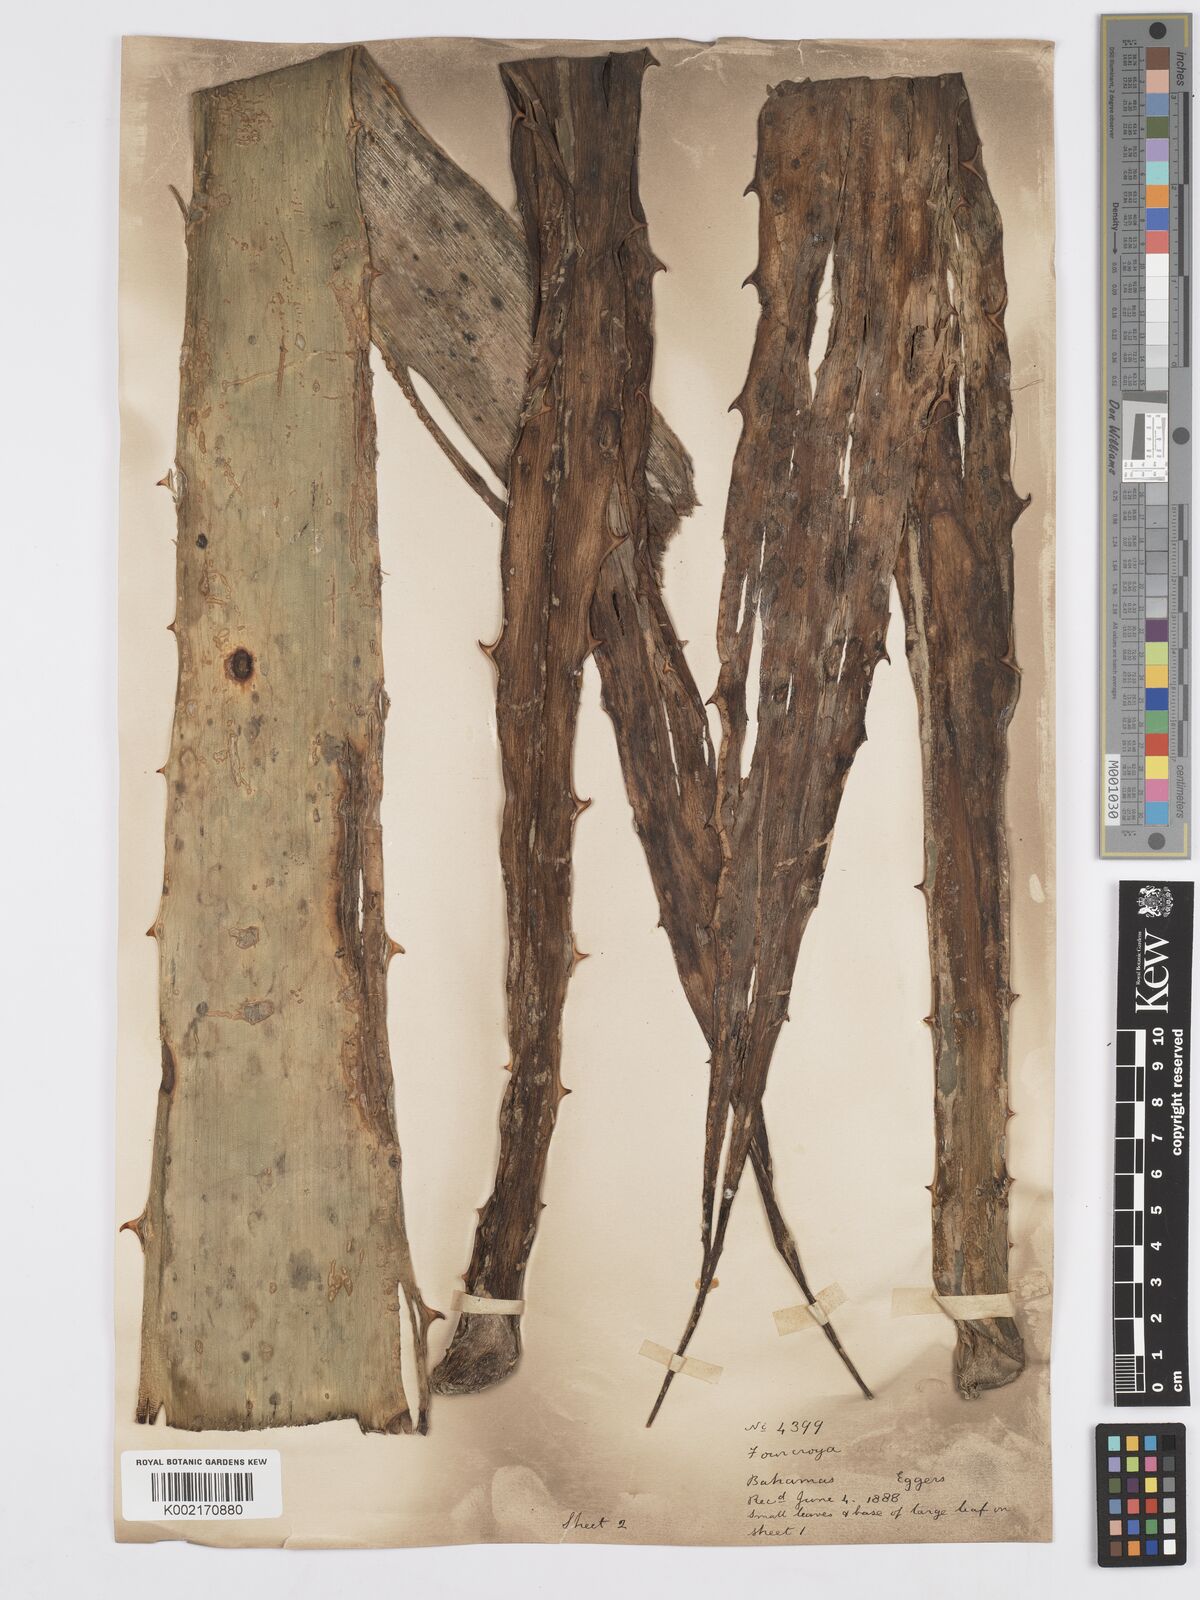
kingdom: Plantae
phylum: Tracheophyta
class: Liliopsida
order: Asparagales
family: Asparagaceae
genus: Furcraea
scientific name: Furcraea hexapetala
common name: Cuban-hemp
